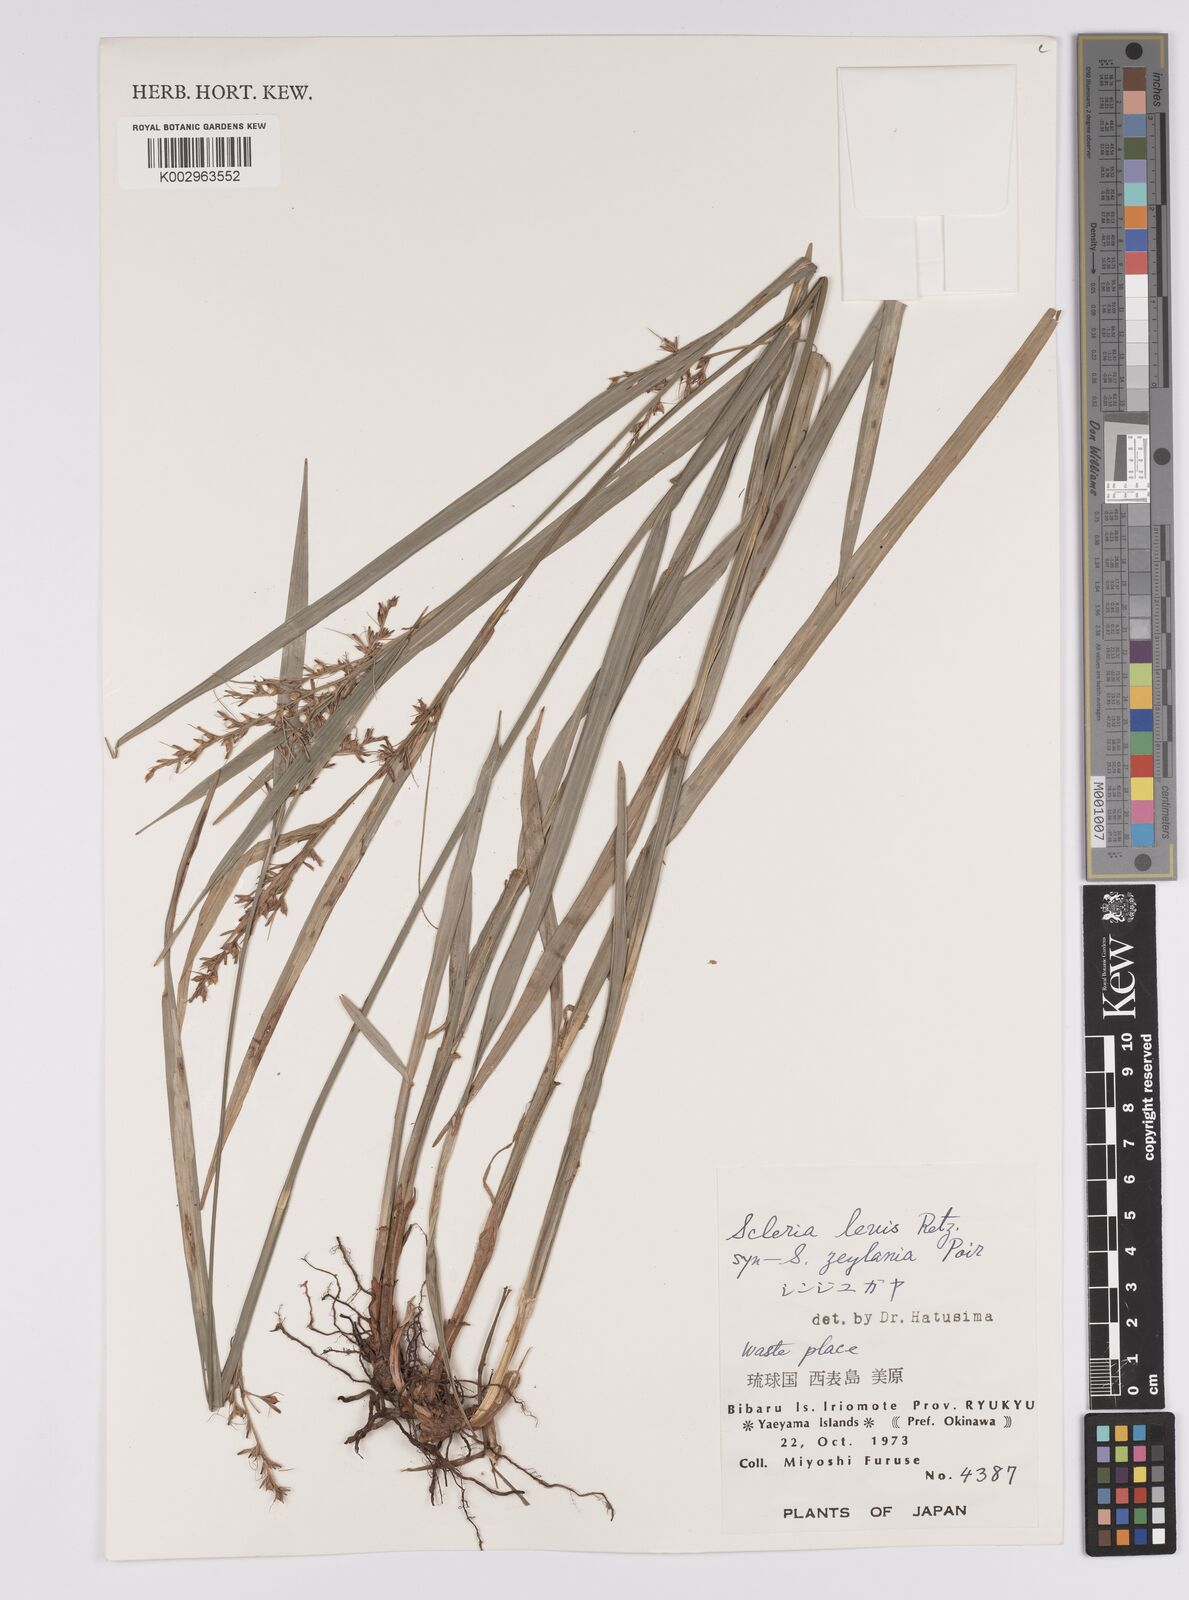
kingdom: Plantae
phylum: Tracheophyta
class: Liliopsida
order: Poales
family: Cyperaceae
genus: Scleria
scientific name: Scleria levis
